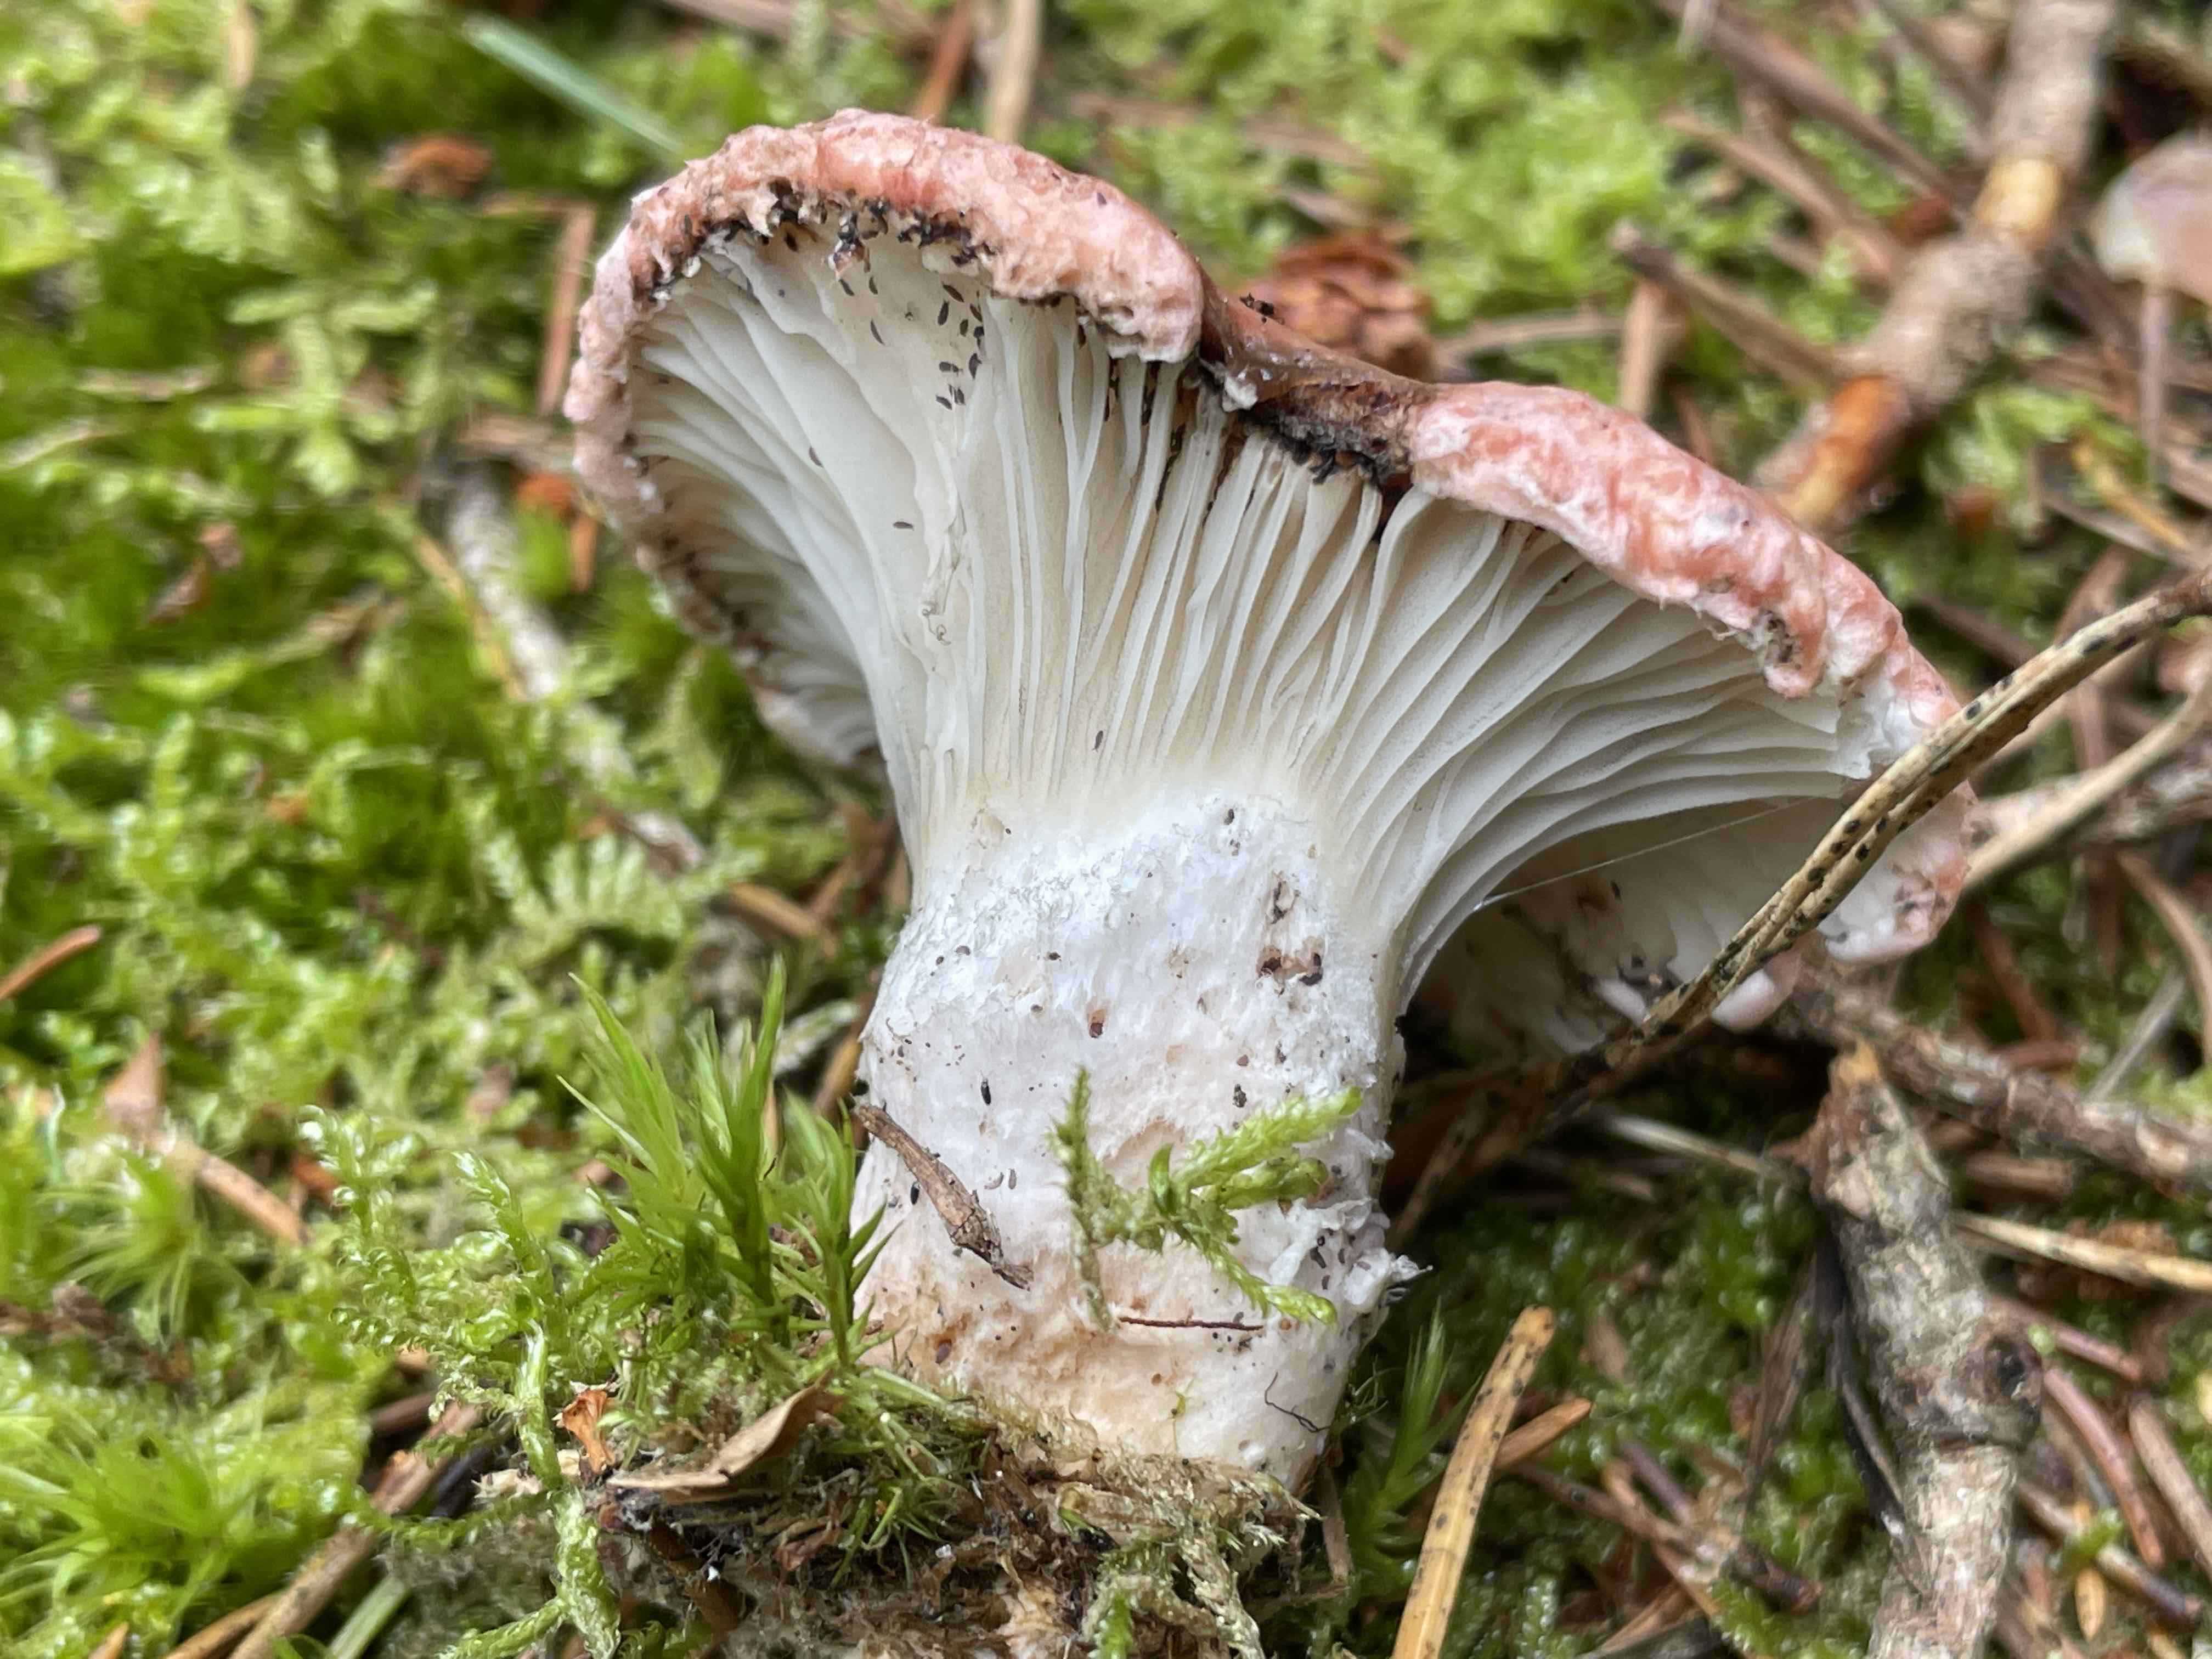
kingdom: Fungi
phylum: Basidiomycota
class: Agaricomycetes
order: Boletales
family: Gomphidiaceae
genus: Gomphidius
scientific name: Gomphidius roseus
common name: rosenrød slimslør
